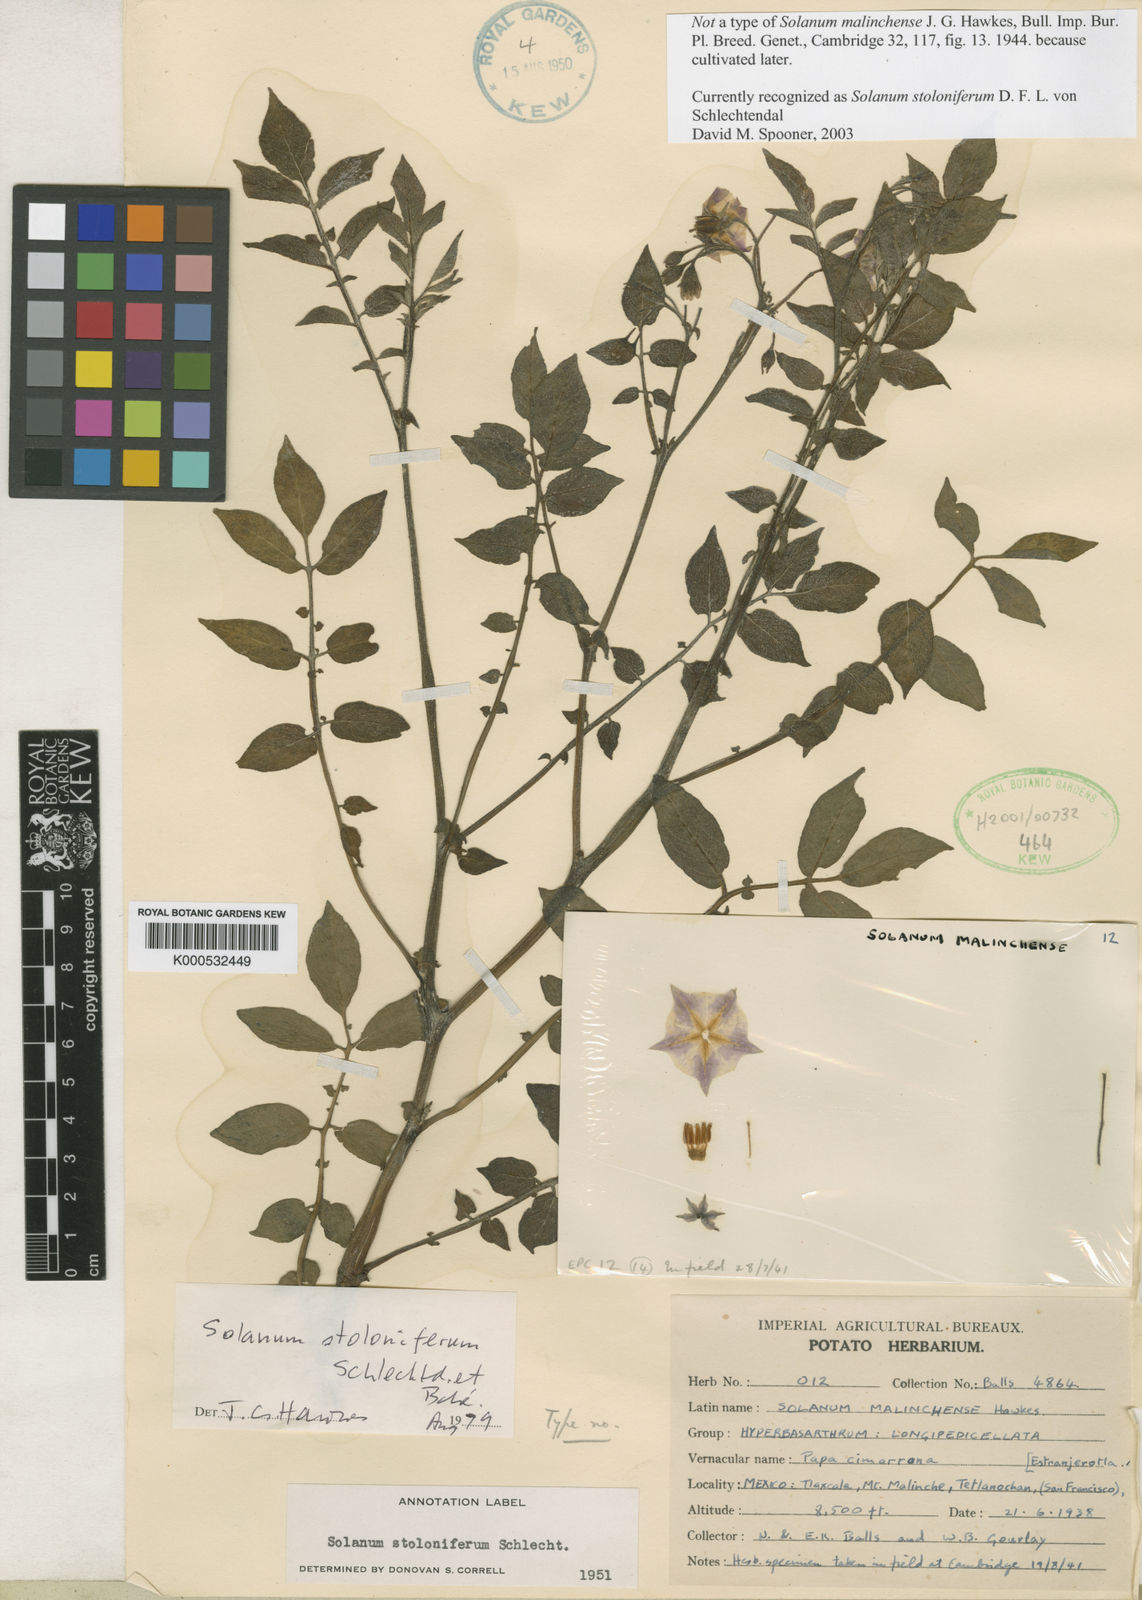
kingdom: Plantae
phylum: Tracheophyta
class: Magnoliopsida
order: Solanales
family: Solanaceae
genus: Solanum
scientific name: Solanum
